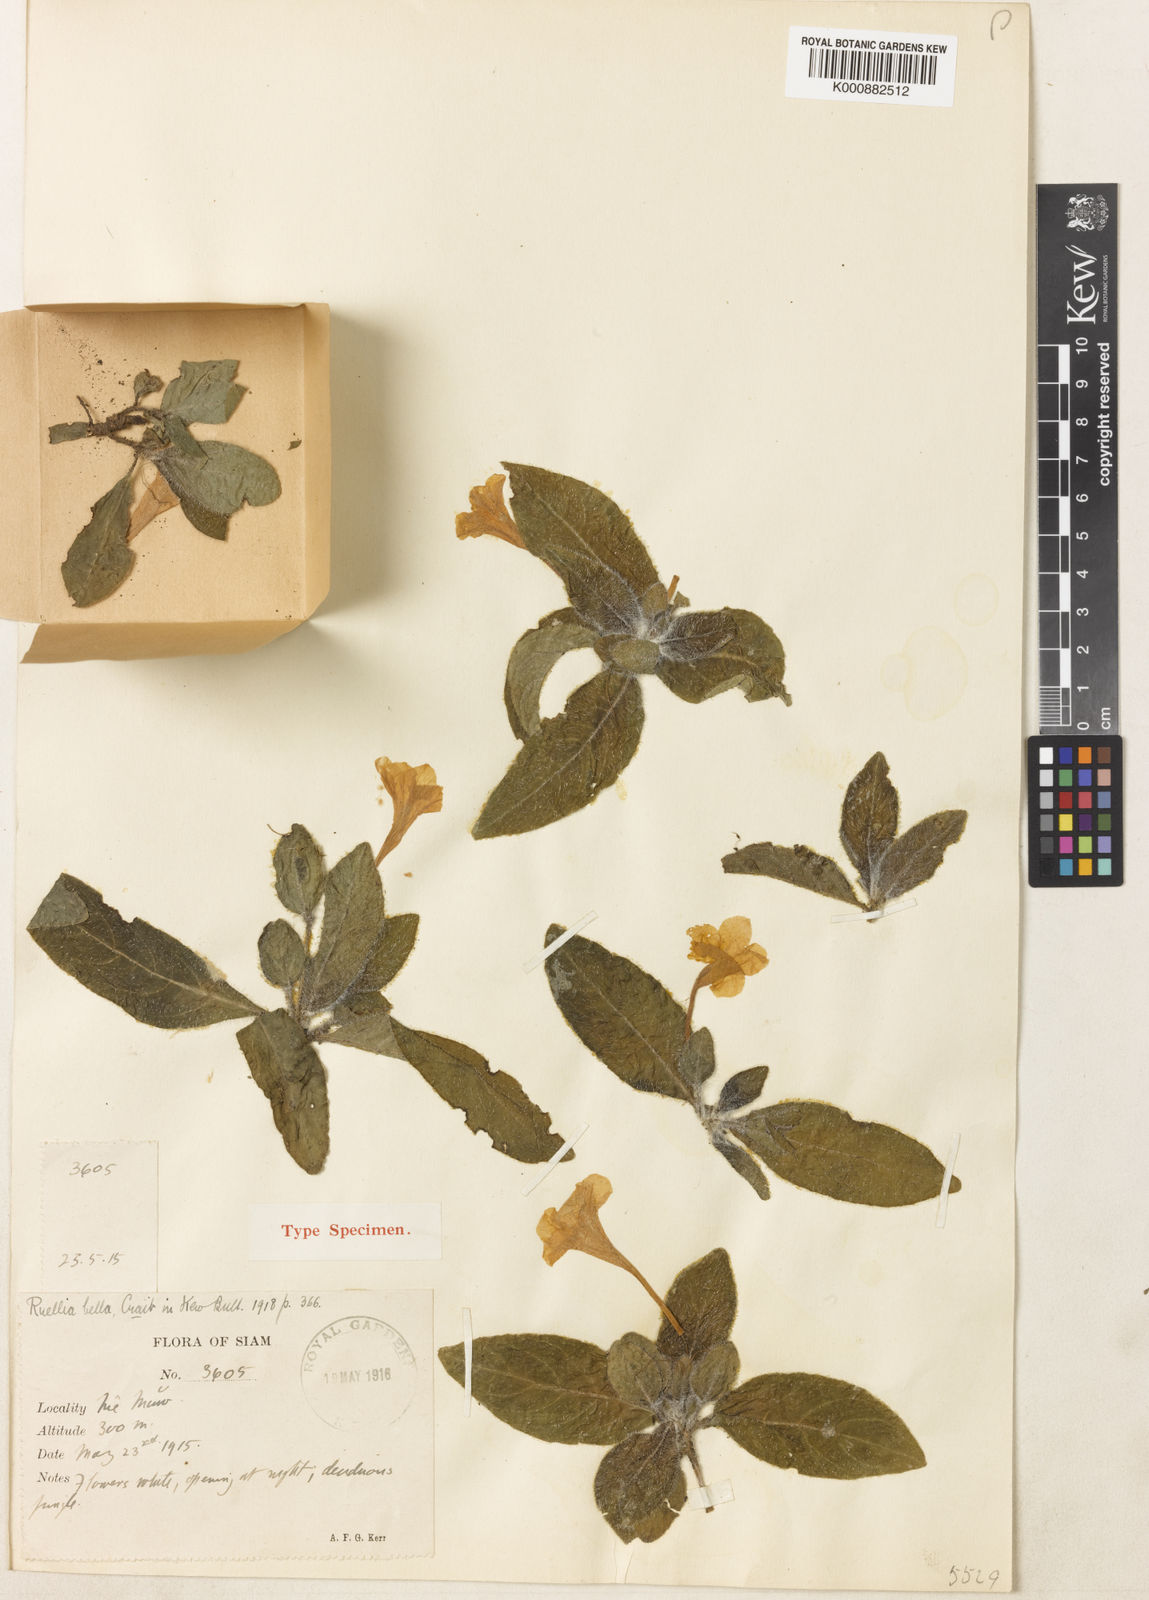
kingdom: Plantae
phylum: Tracheophyta
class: Magnoliopsida
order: Lamiales
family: Acanthaceae
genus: Ruellia
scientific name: Ruellia bella
